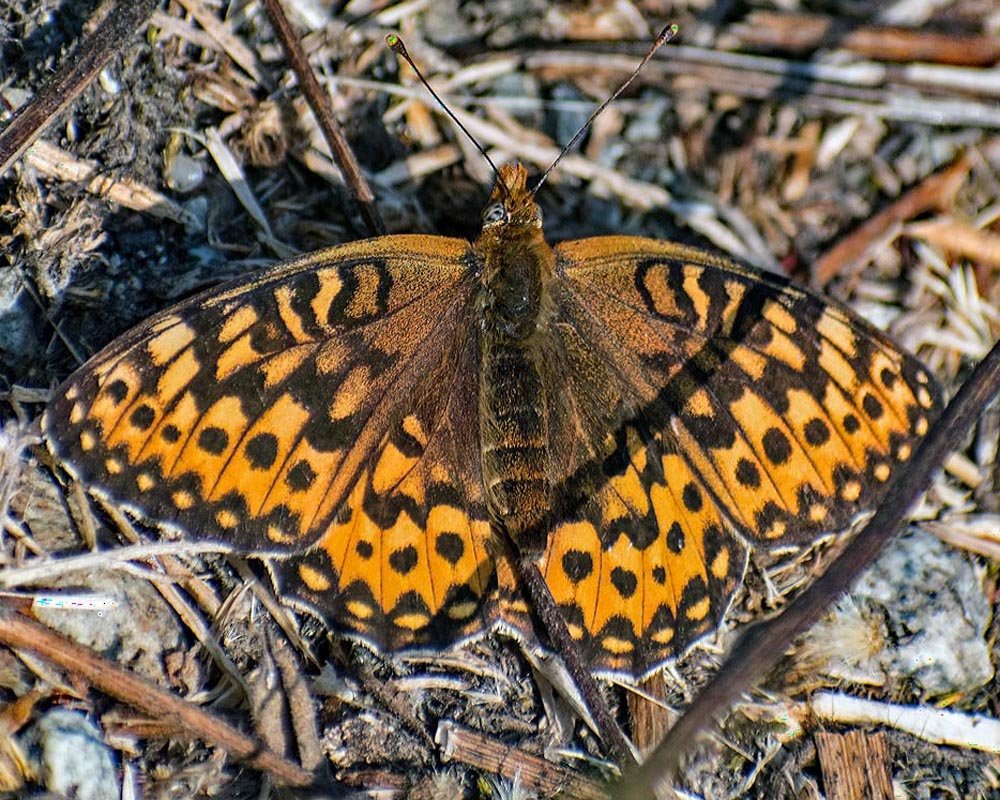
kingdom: Animalia
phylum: Arthropoda
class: Insecta
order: Lepidoptera
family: Nymphalidae
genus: Speyeria
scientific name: Speyeria
